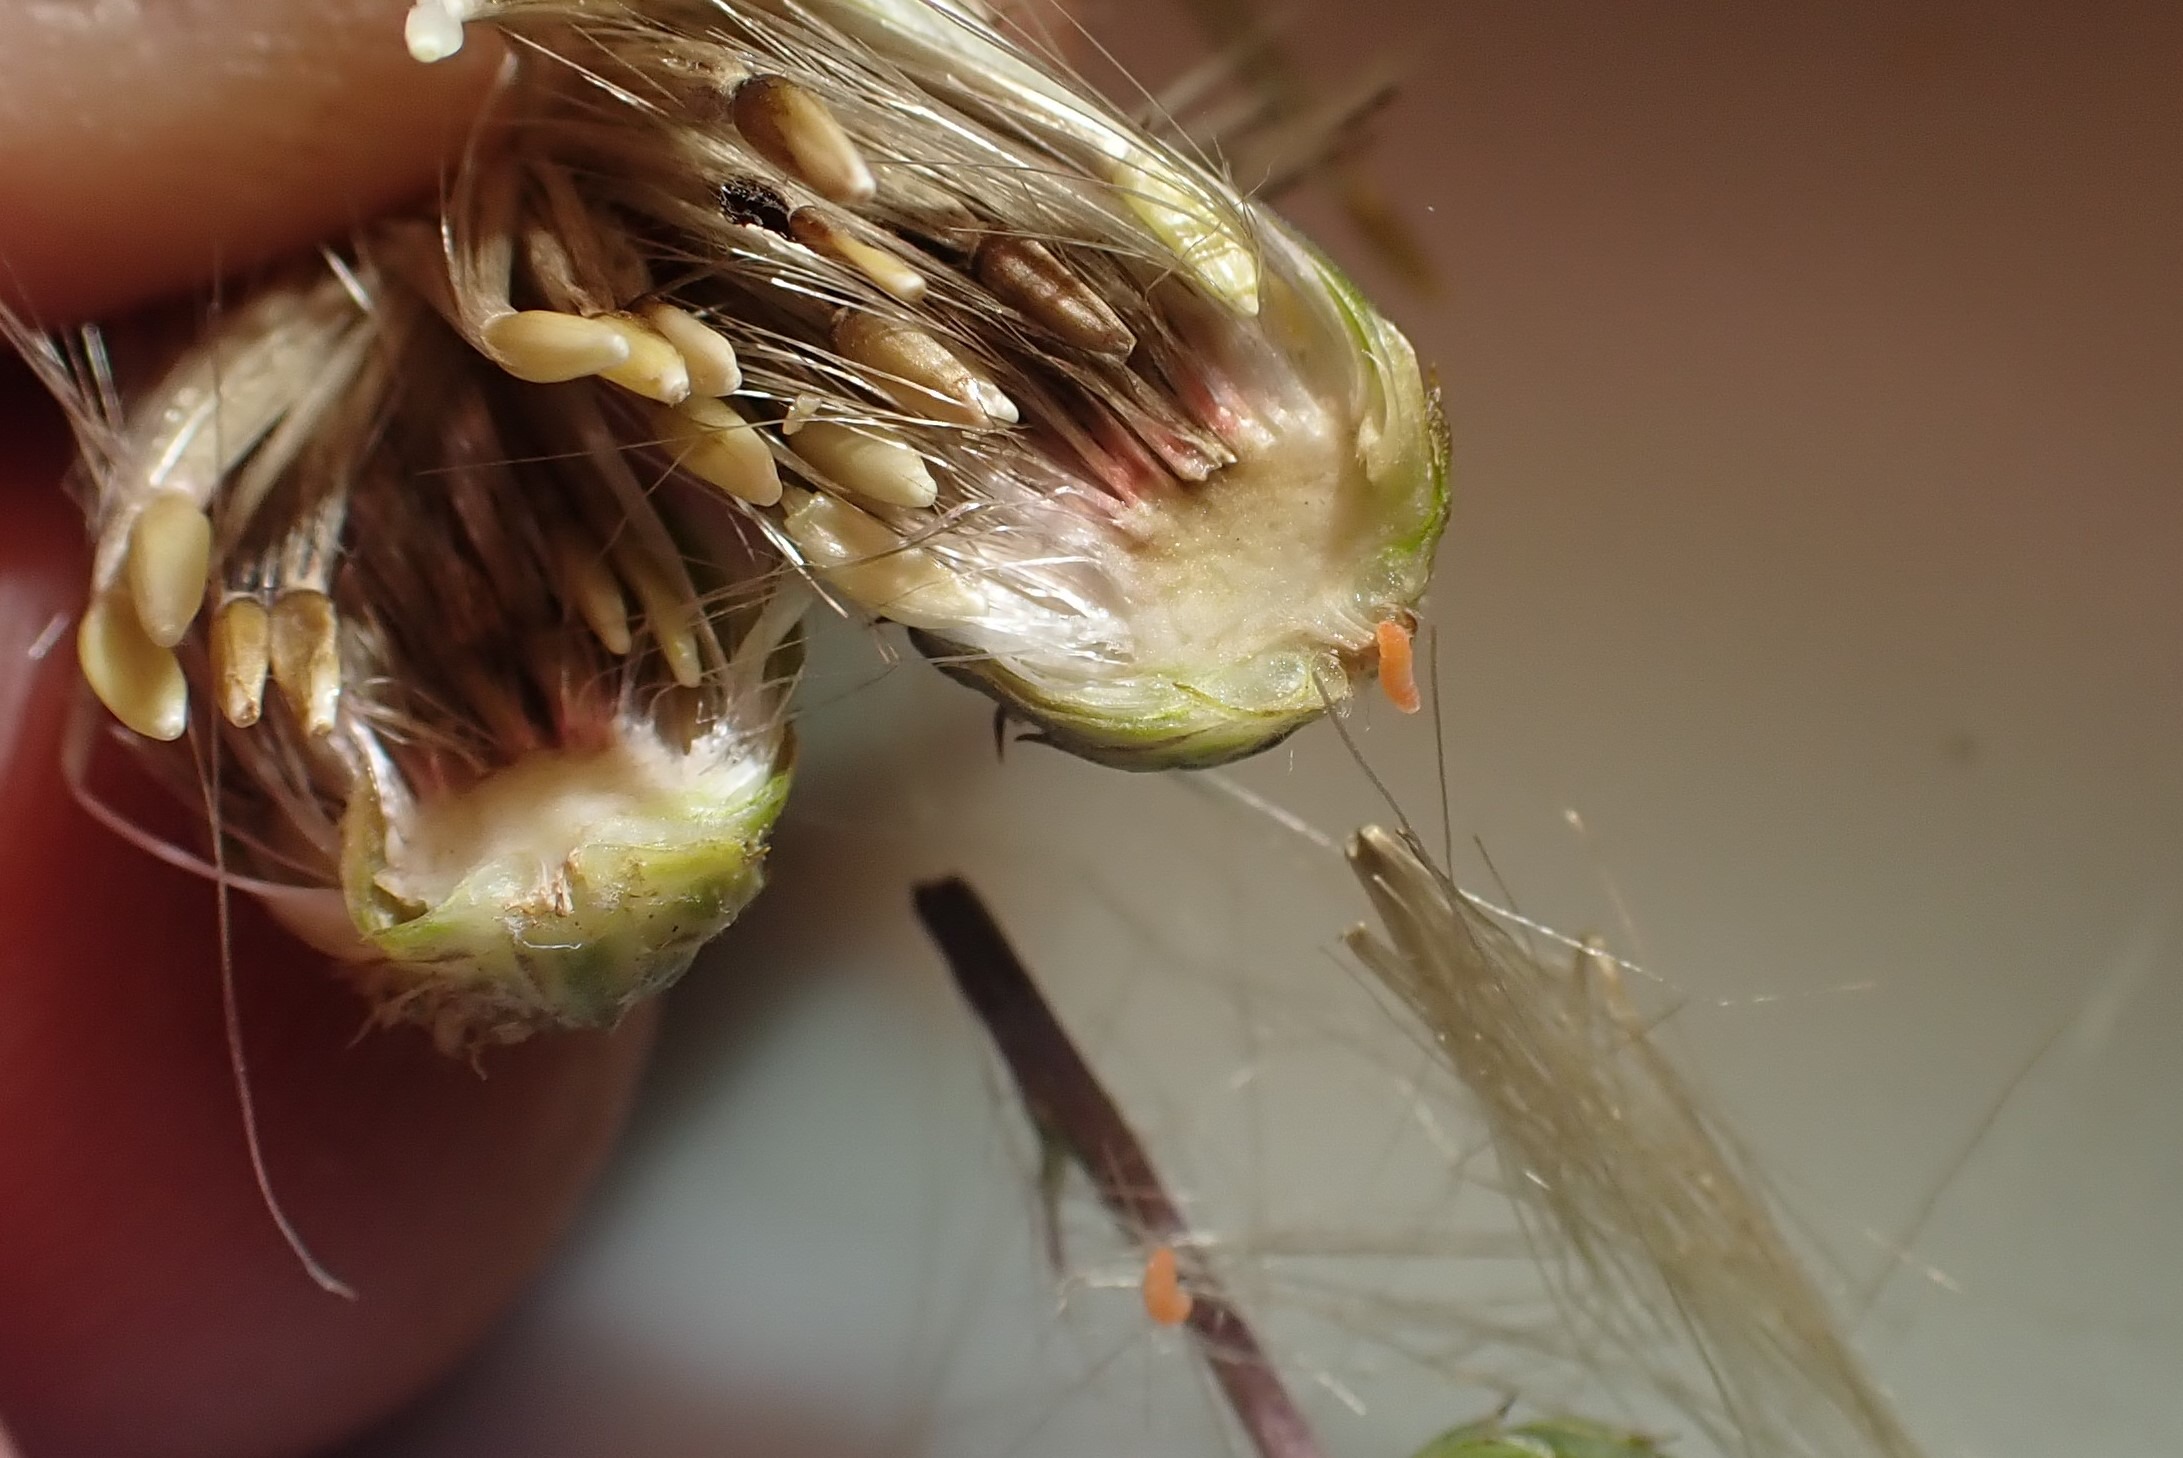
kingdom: Animalia
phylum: Arthropoda
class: Insecta
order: Diptera
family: Cecidomyiidae
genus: Jaapiella
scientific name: Jaapiella cirsiicola
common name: Tidselgalmyg
